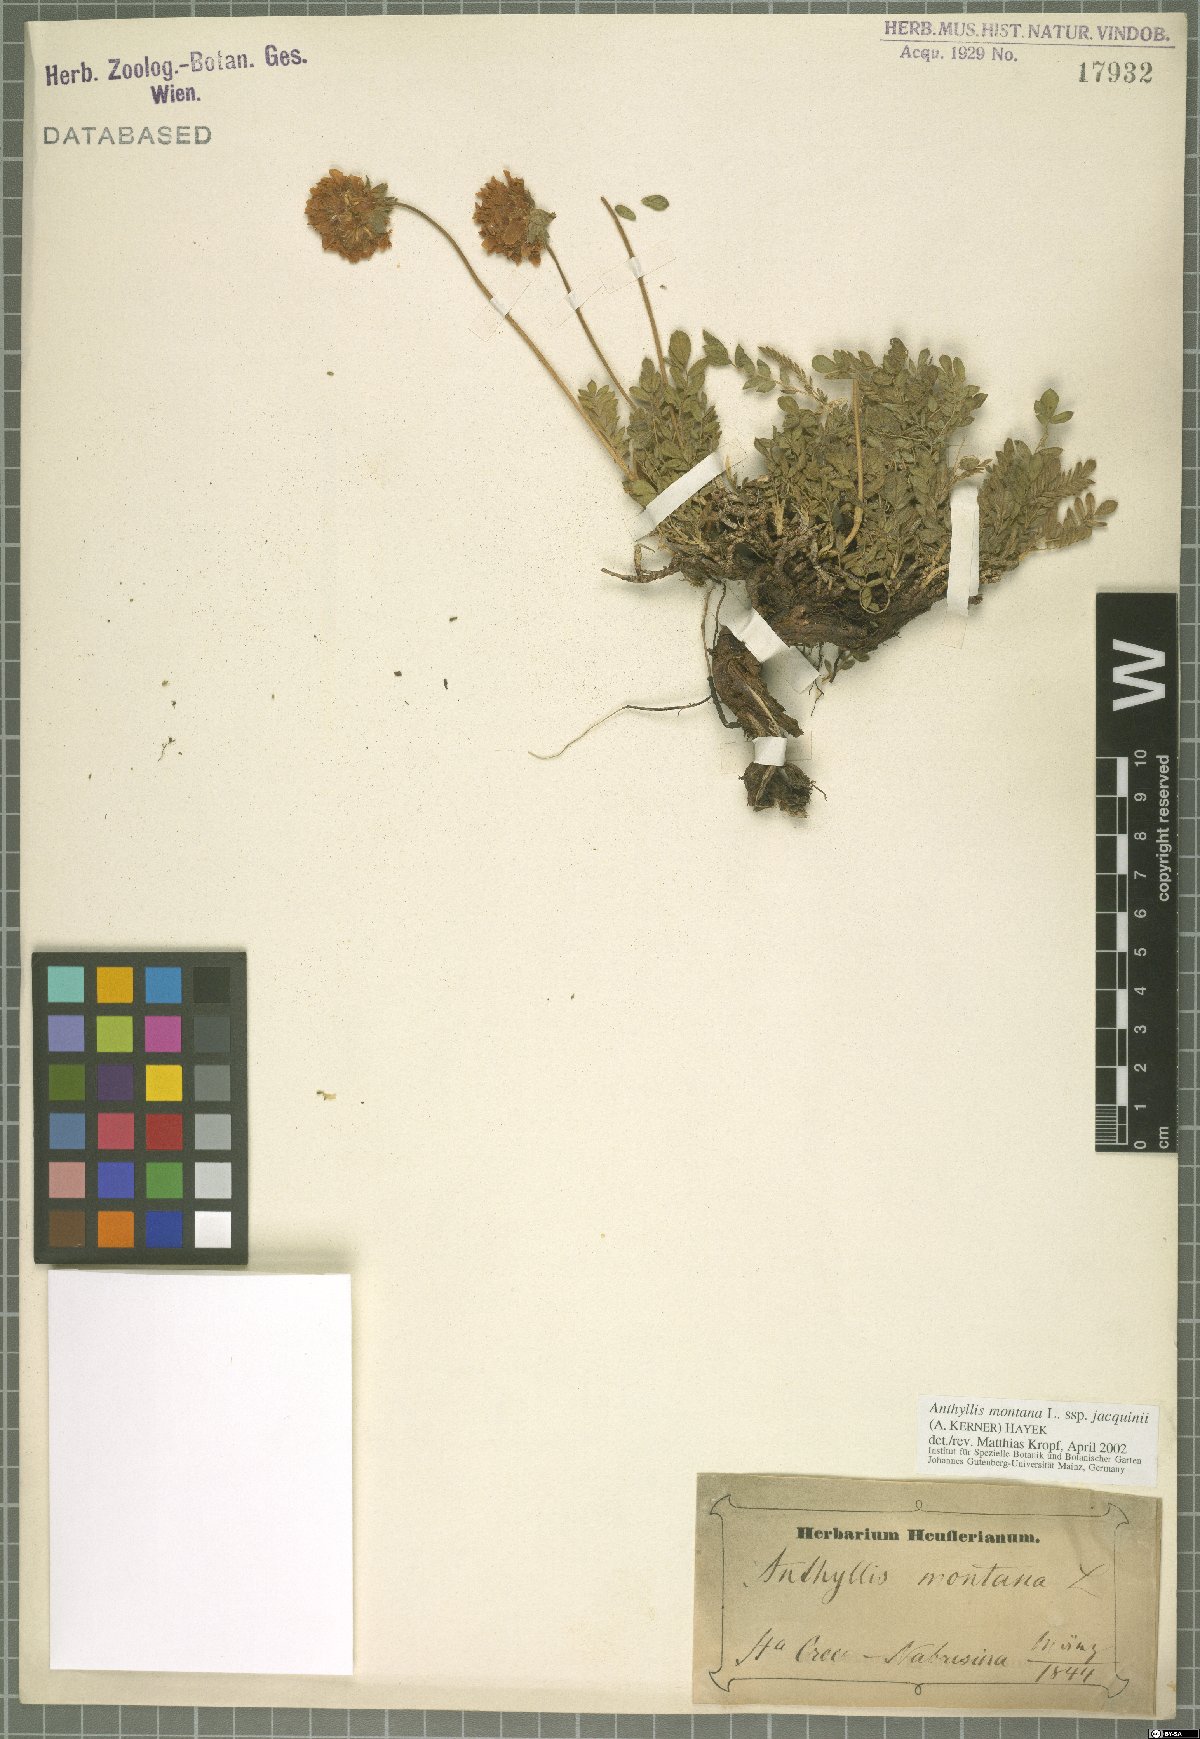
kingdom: Plantae
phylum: Tracheophyta
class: Magnoliopsida
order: Fabales
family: Fabaceae
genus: Anthyllis
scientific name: Anthyllis montana
